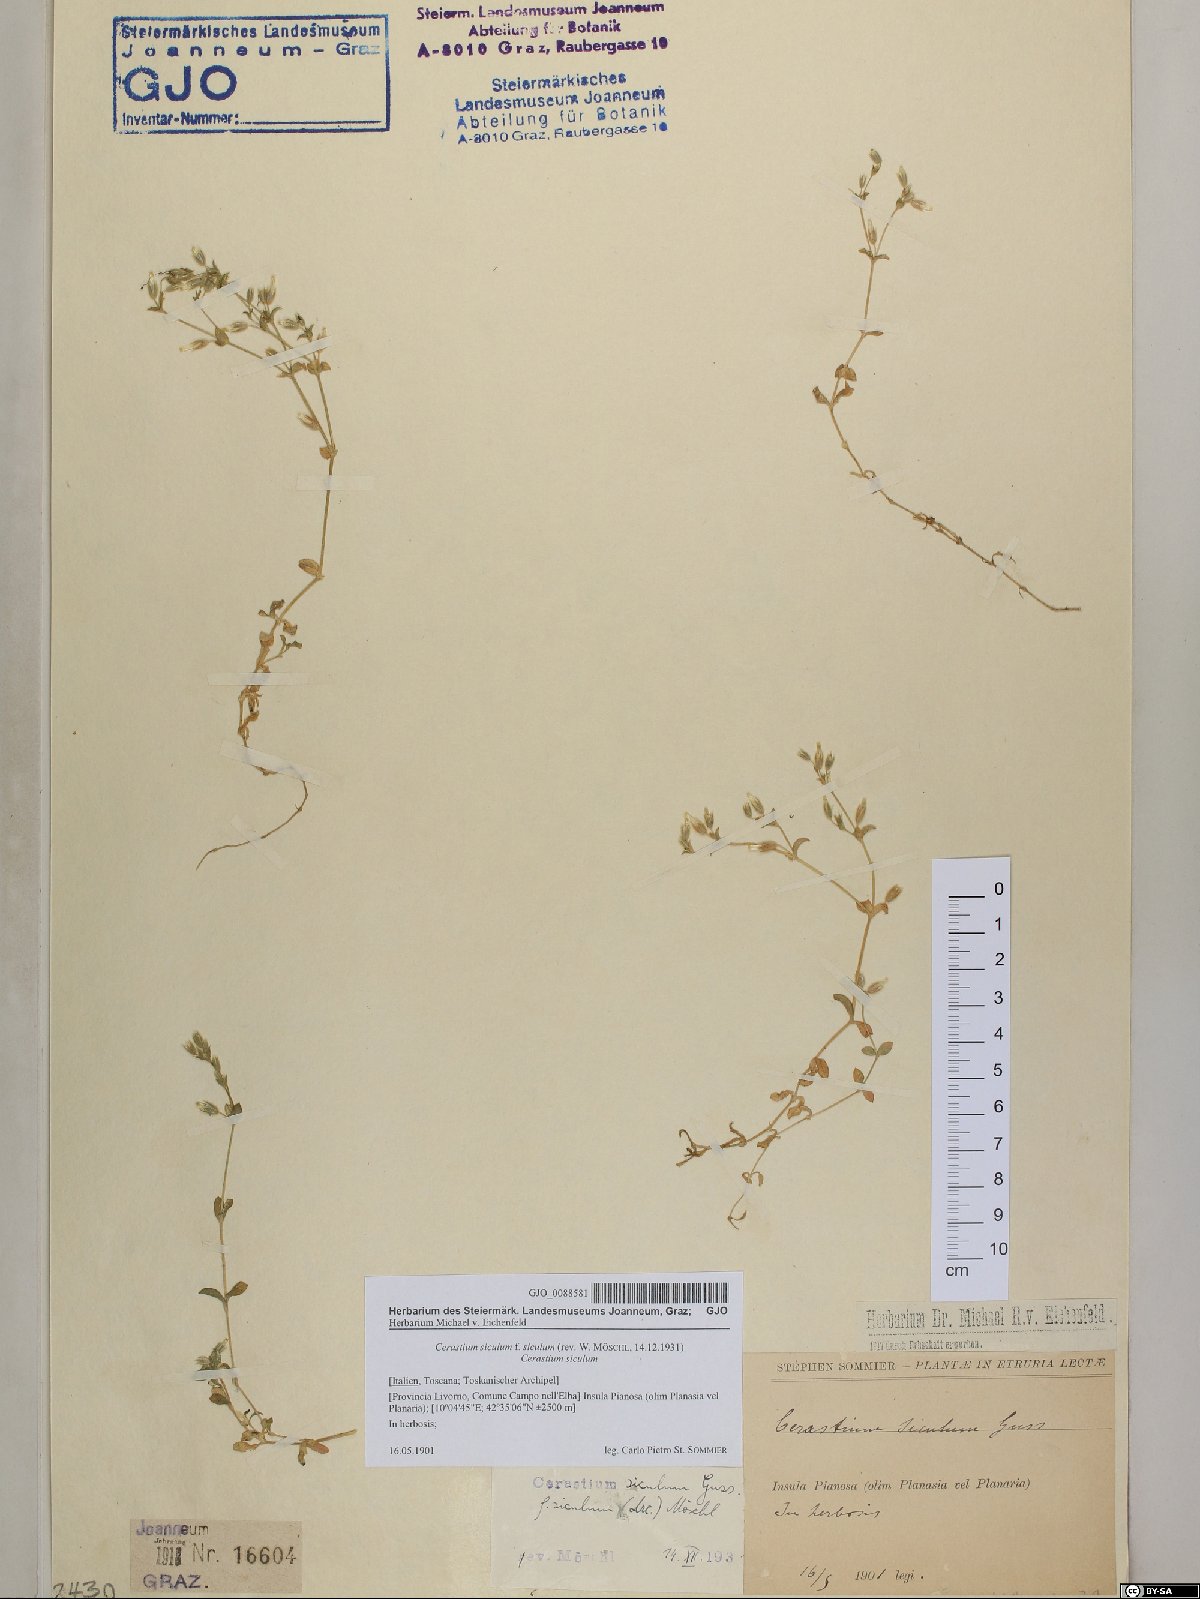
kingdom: Plantae
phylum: Tracheophyta
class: Magnoliopsida
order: Caryophyllales
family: Caryophyllaceae
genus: Cerastium
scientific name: Cerastium siculum
